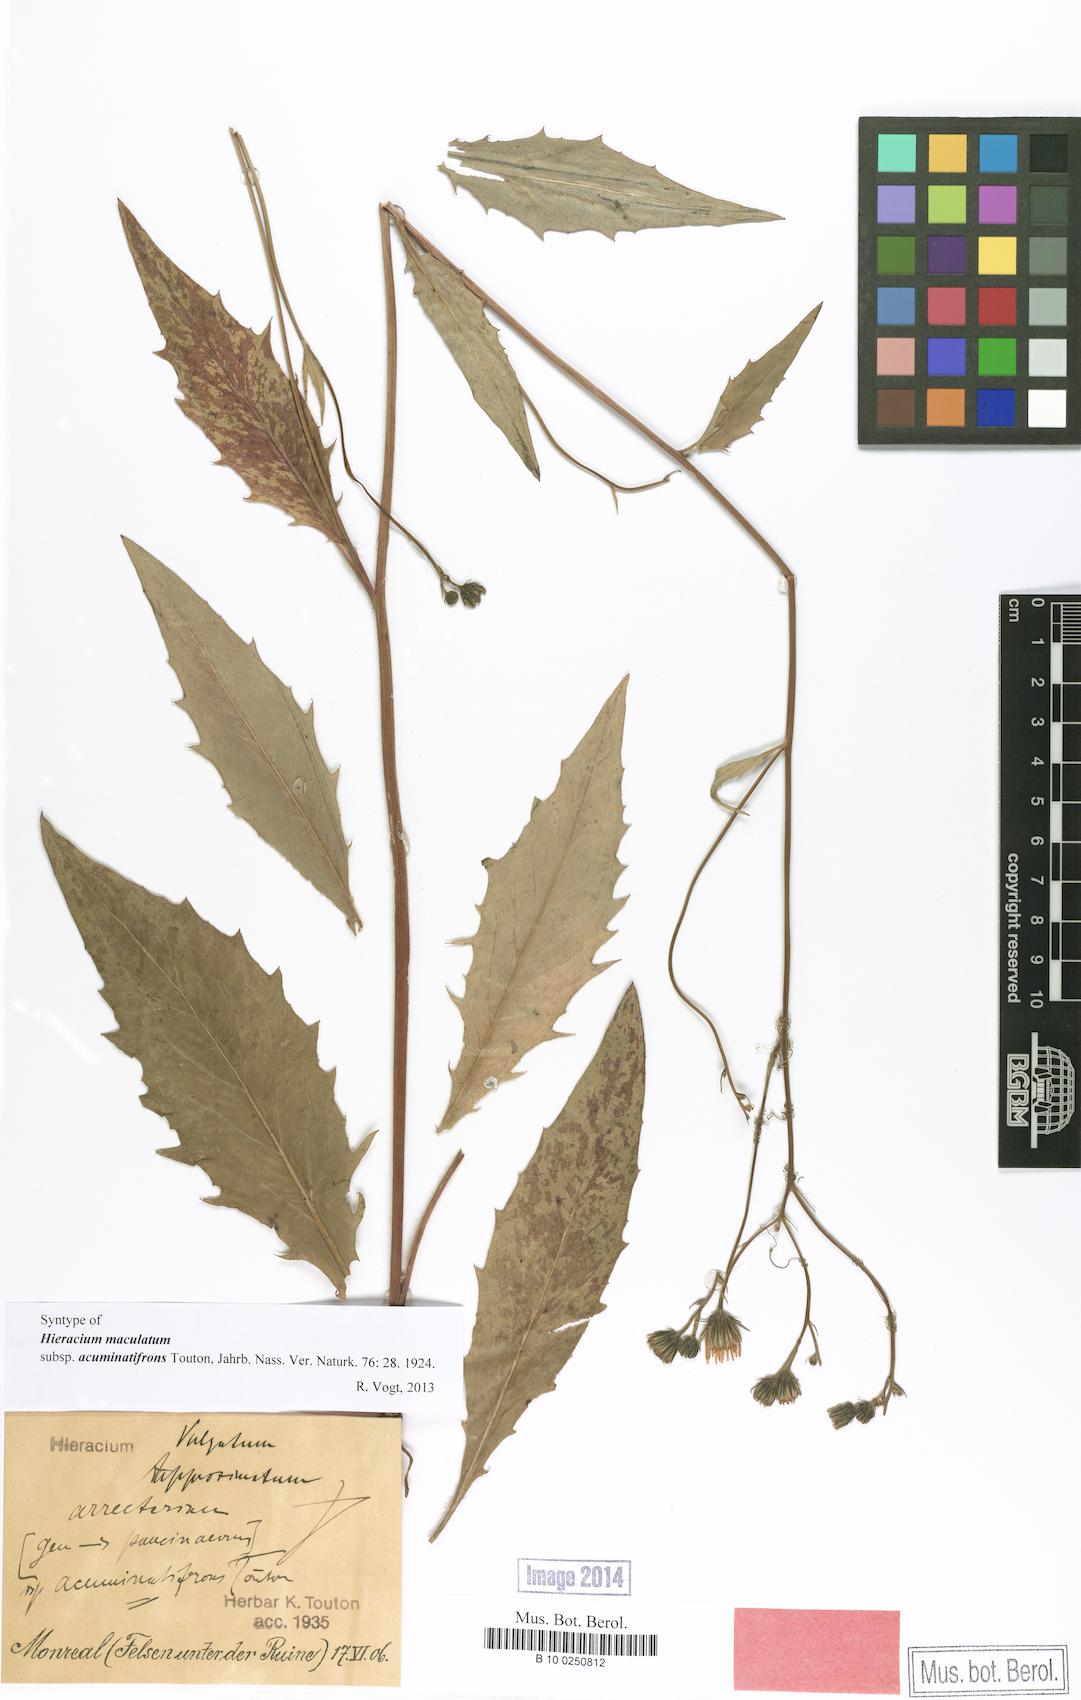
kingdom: Plantae
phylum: Tracheophyta
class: Magnoliopsida
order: Asterales
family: Asteraceae
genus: Hieracium
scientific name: Hieracium maculatum
